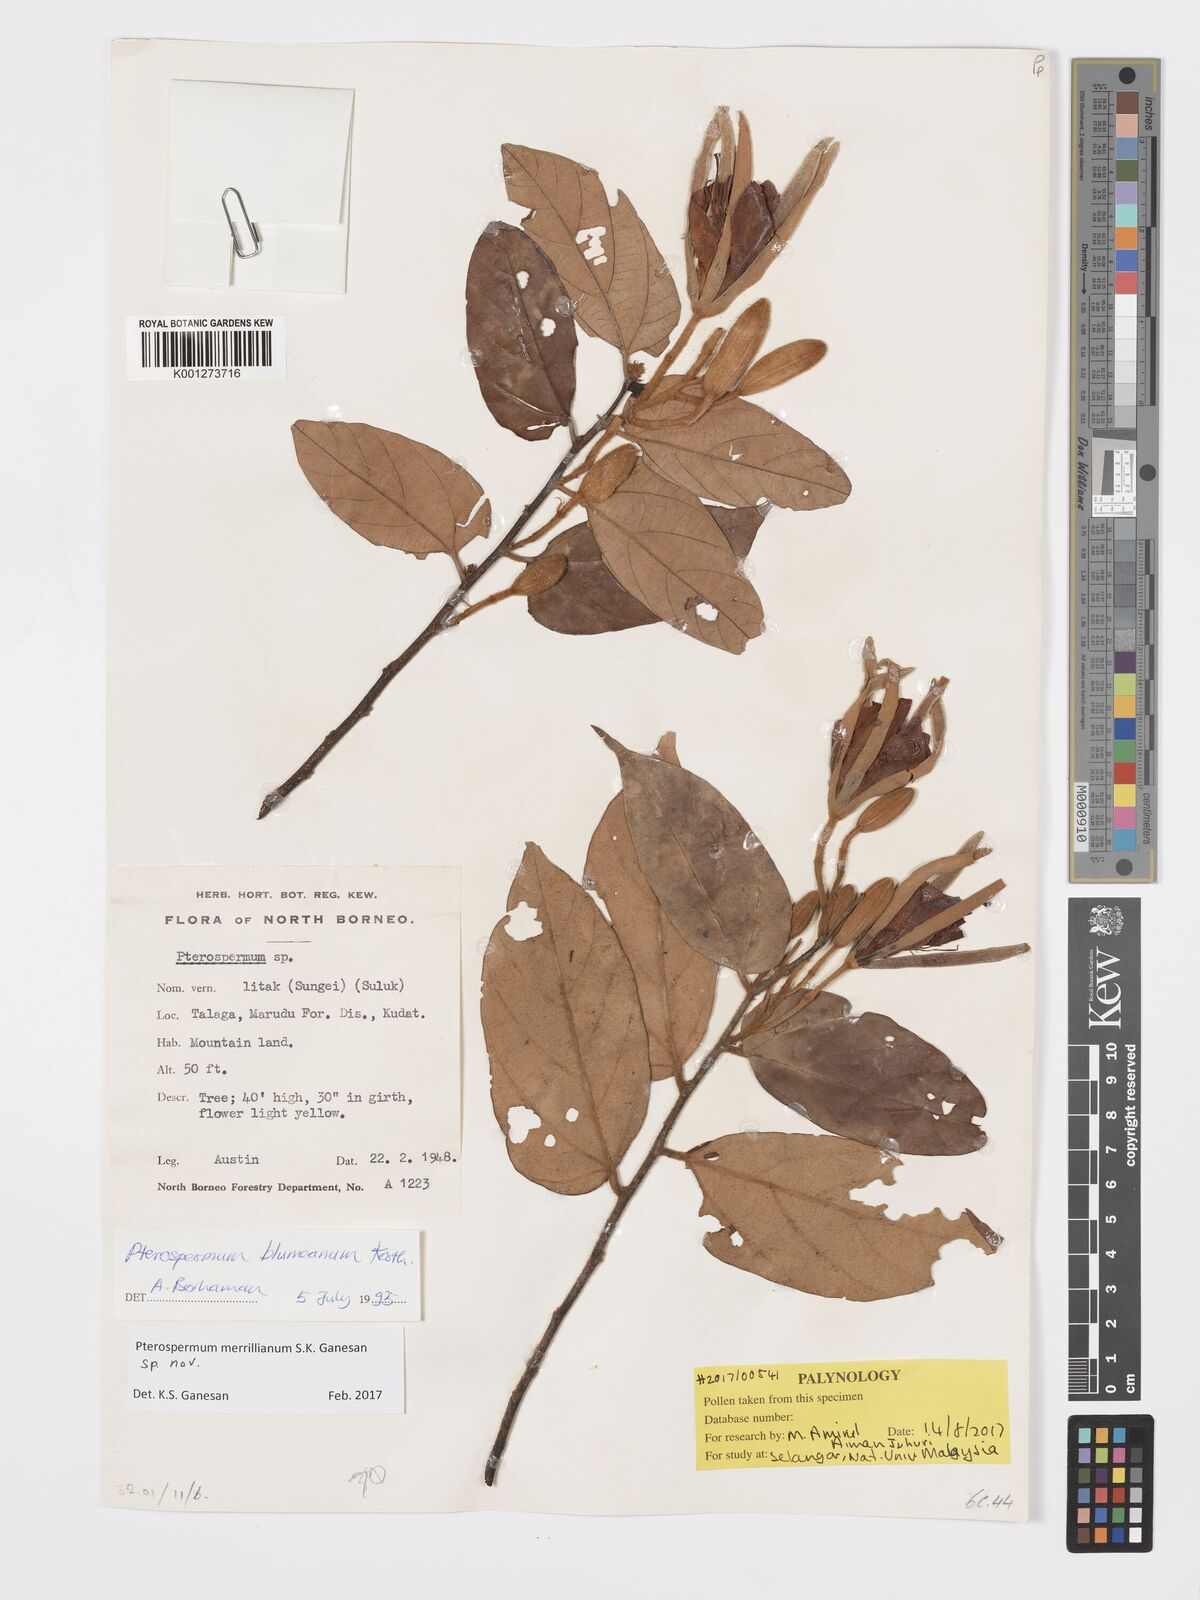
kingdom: Plantae
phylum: Tracheophyta
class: Magnoliopsida
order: Malvales
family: Malvaceae
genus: Pterospermum
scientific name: Pterospermum javanicum
